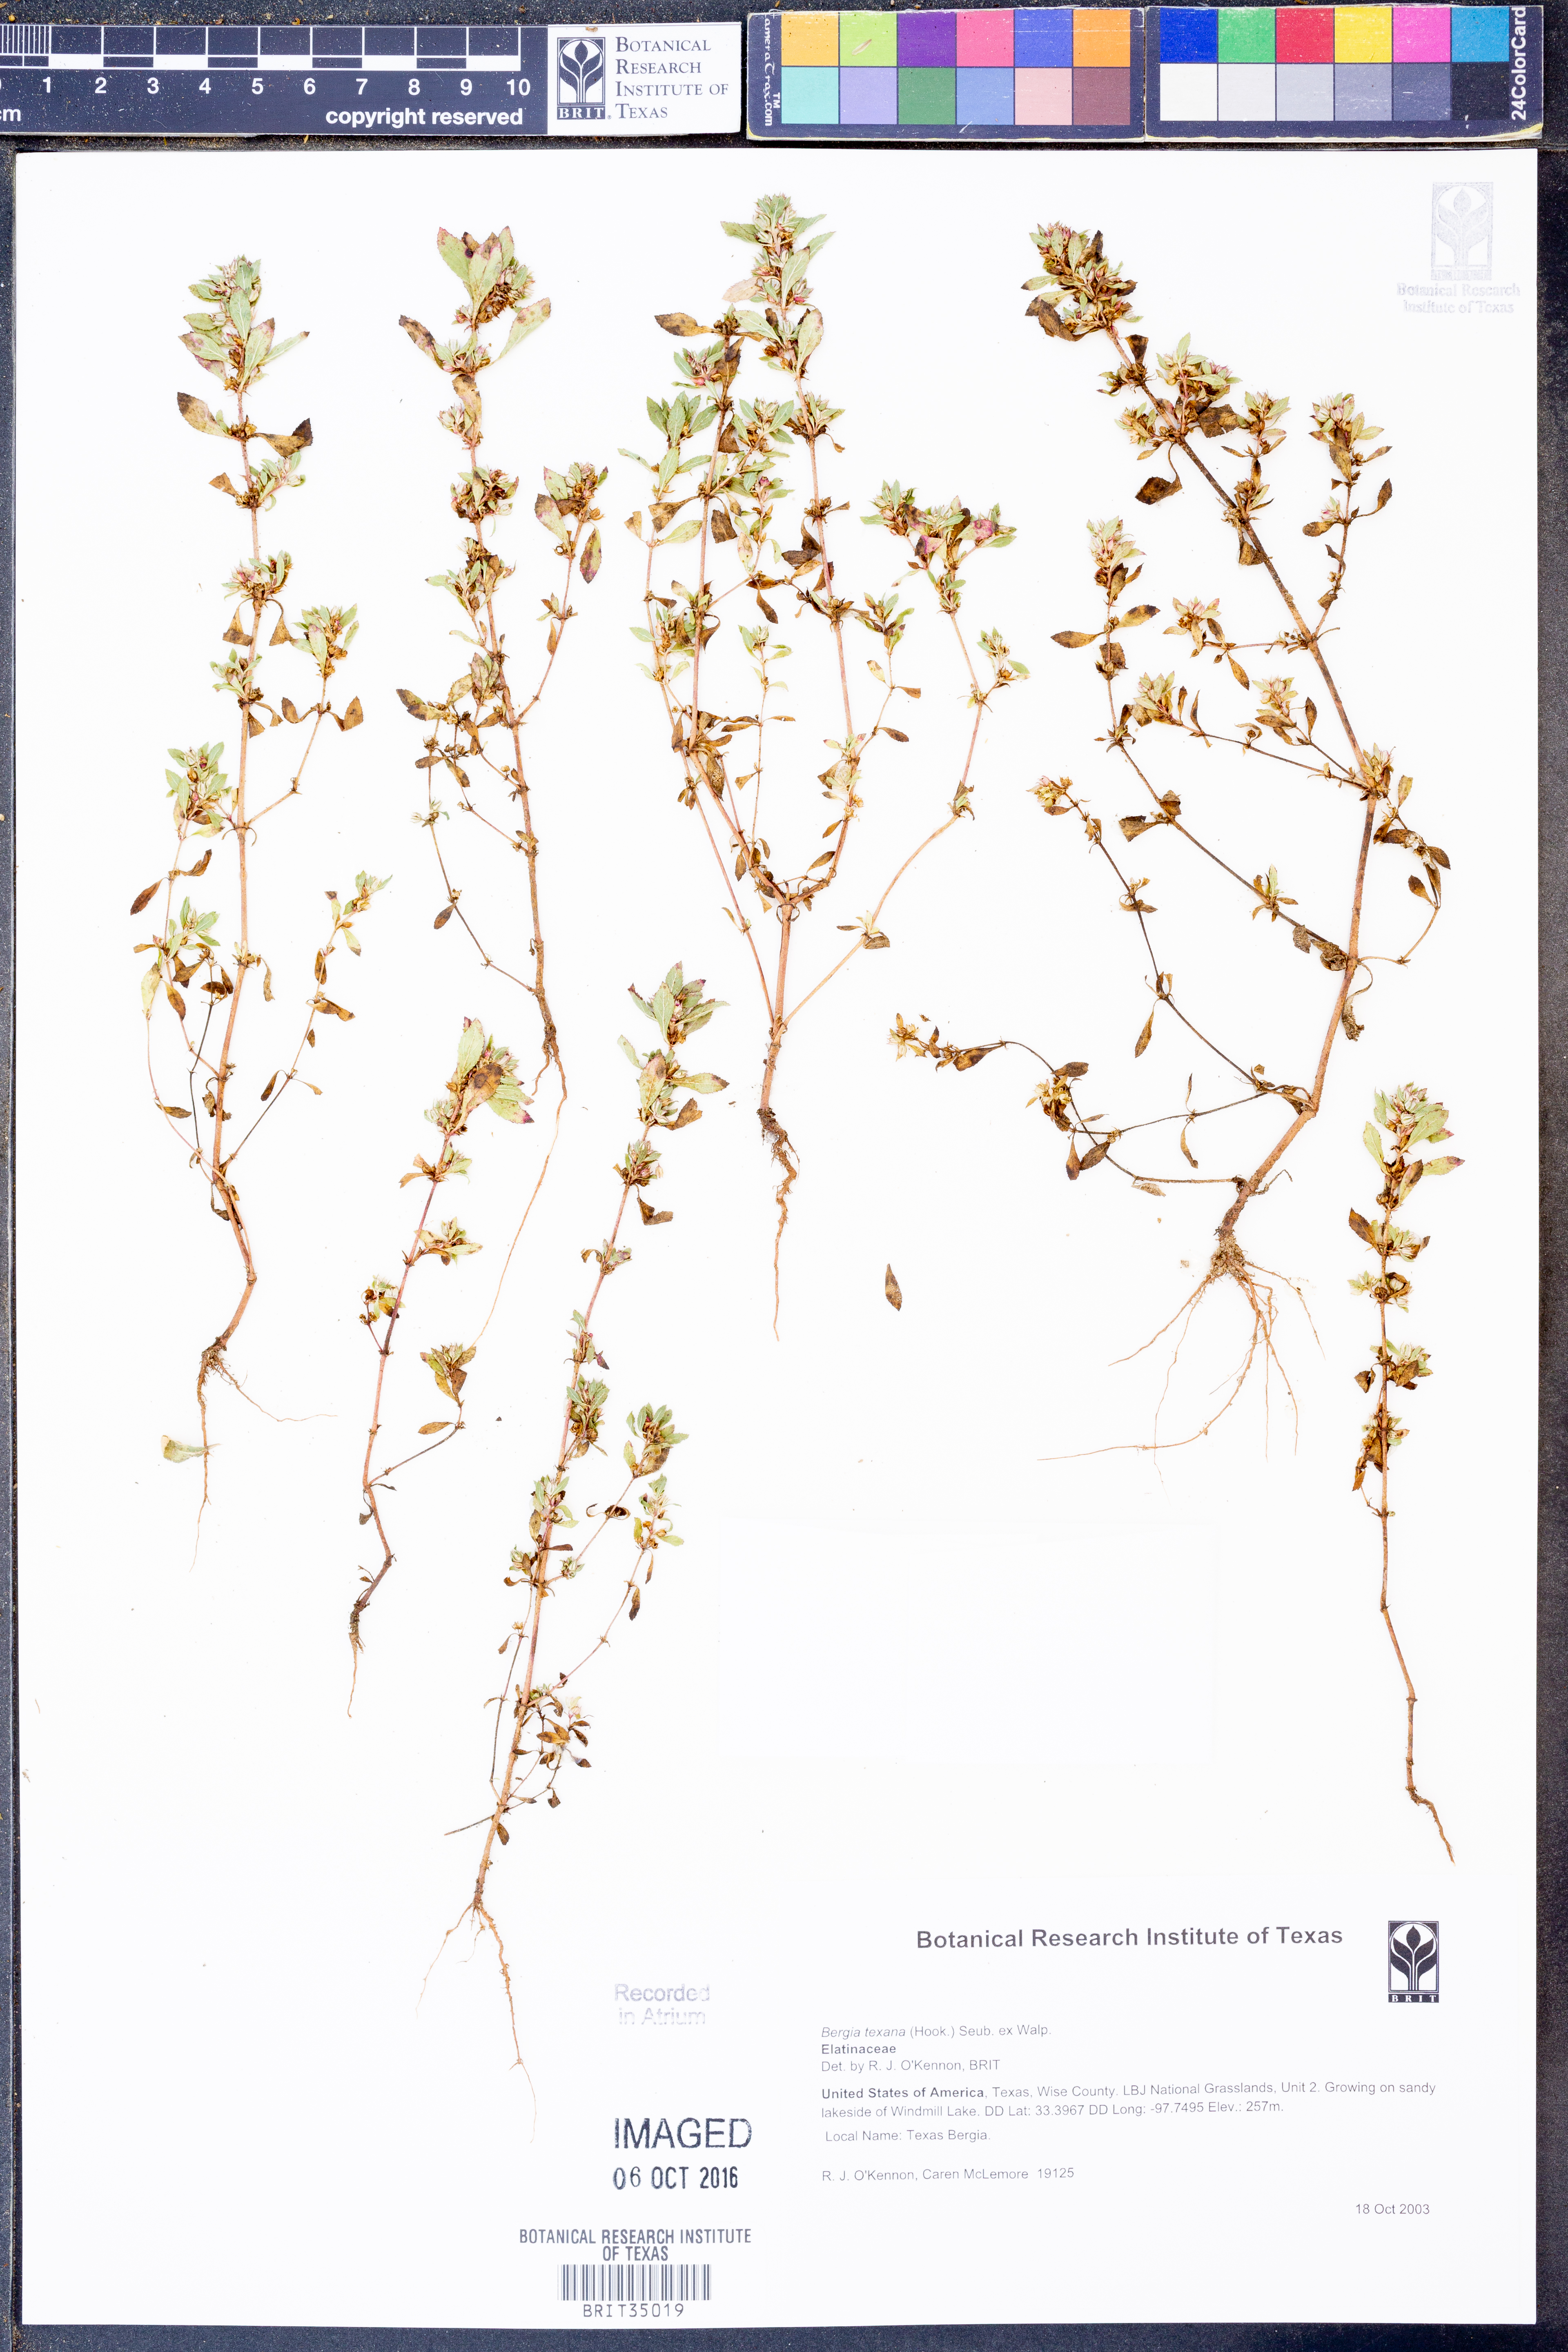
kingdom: Plantae
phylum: Tracheophyta
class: Magnoliopsida
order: Malpighiales
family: Elatinaceae
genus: Bergia
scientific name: Bergia texana
